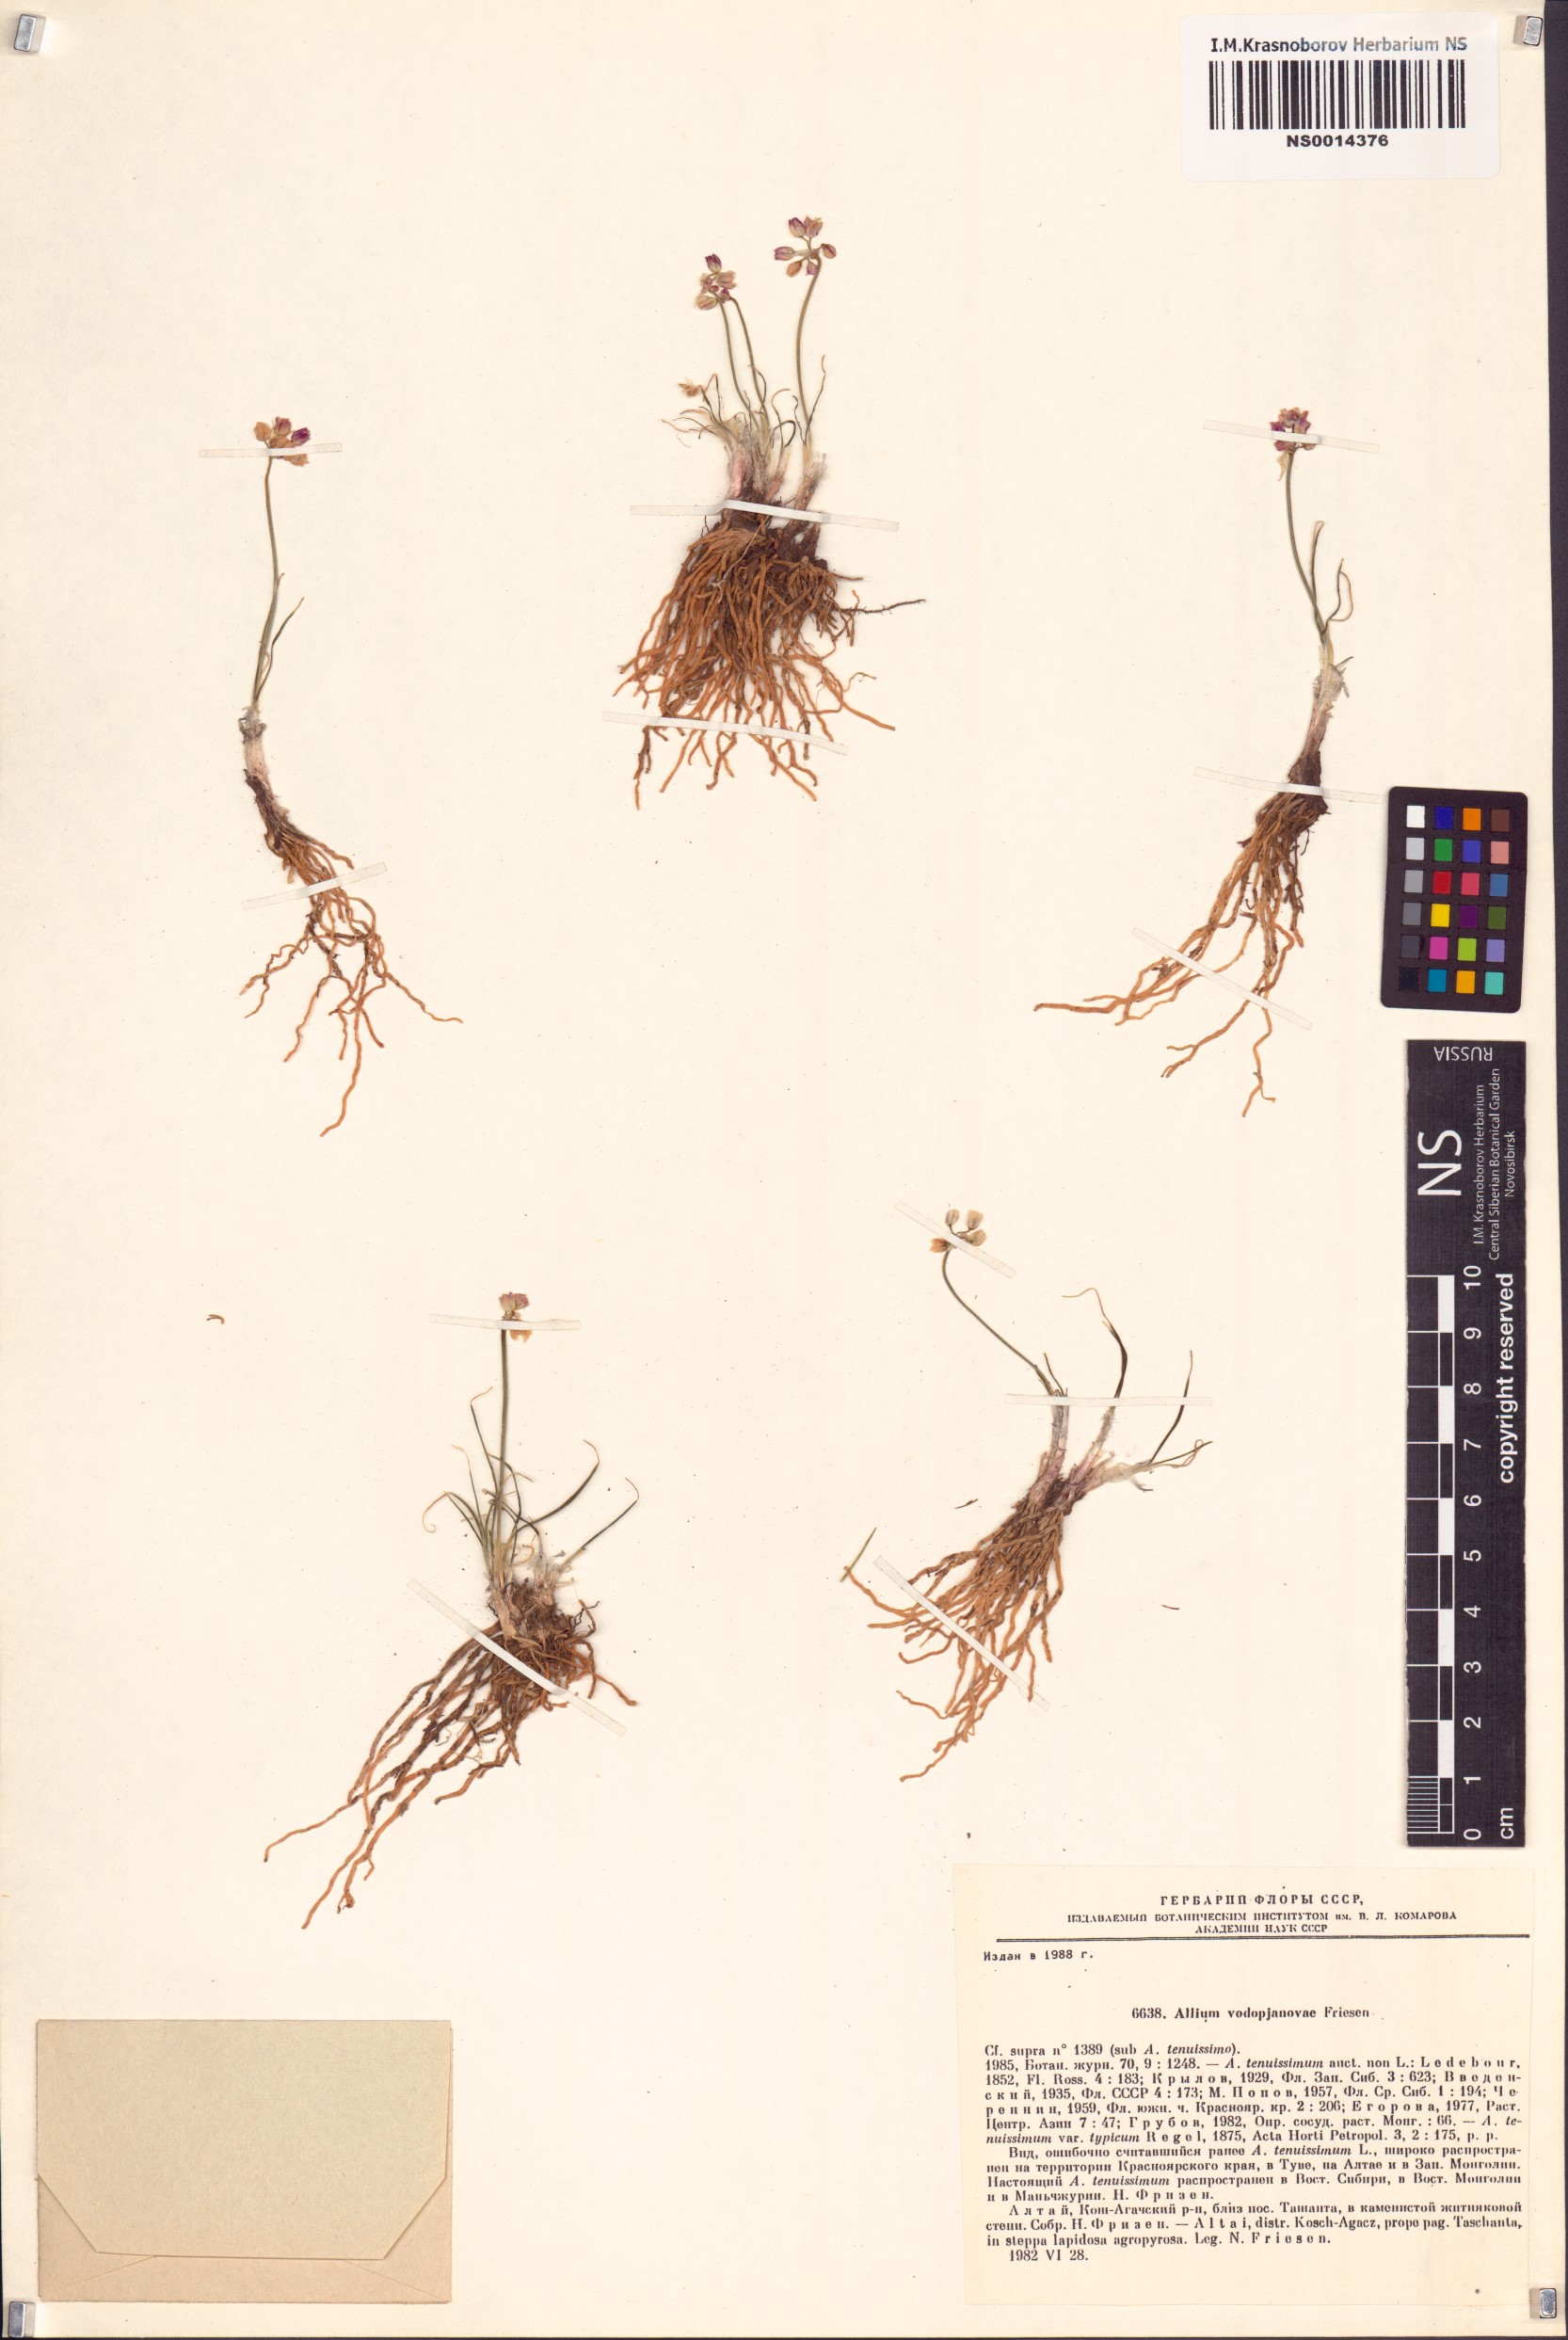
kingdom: Plantae
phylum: Tracheophyta
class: Liliopsida
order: Asparagales
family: Amaryllidaceae
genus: Allium
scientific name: Allium vodopjanovae
